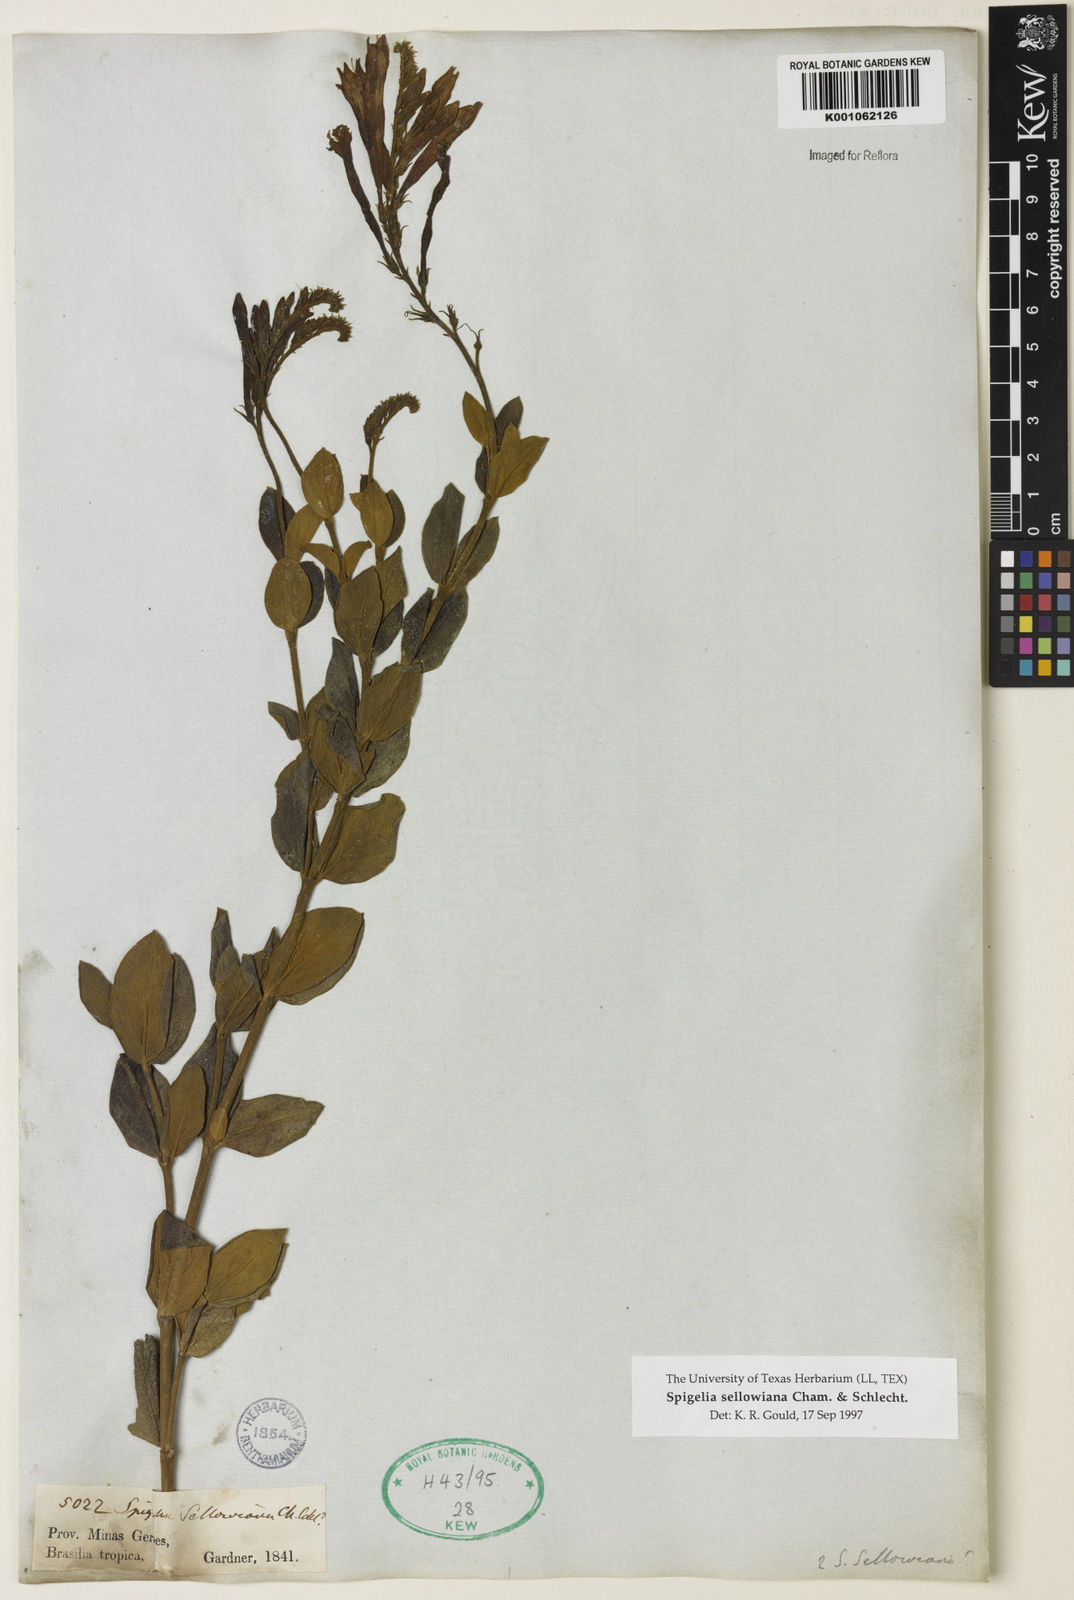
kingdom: Plantae
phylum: Tracheophyta
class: Magnoliopsida
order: Gentianales
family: Loganiaceae
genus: Spigelia
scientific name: Spigelia sellowiana
